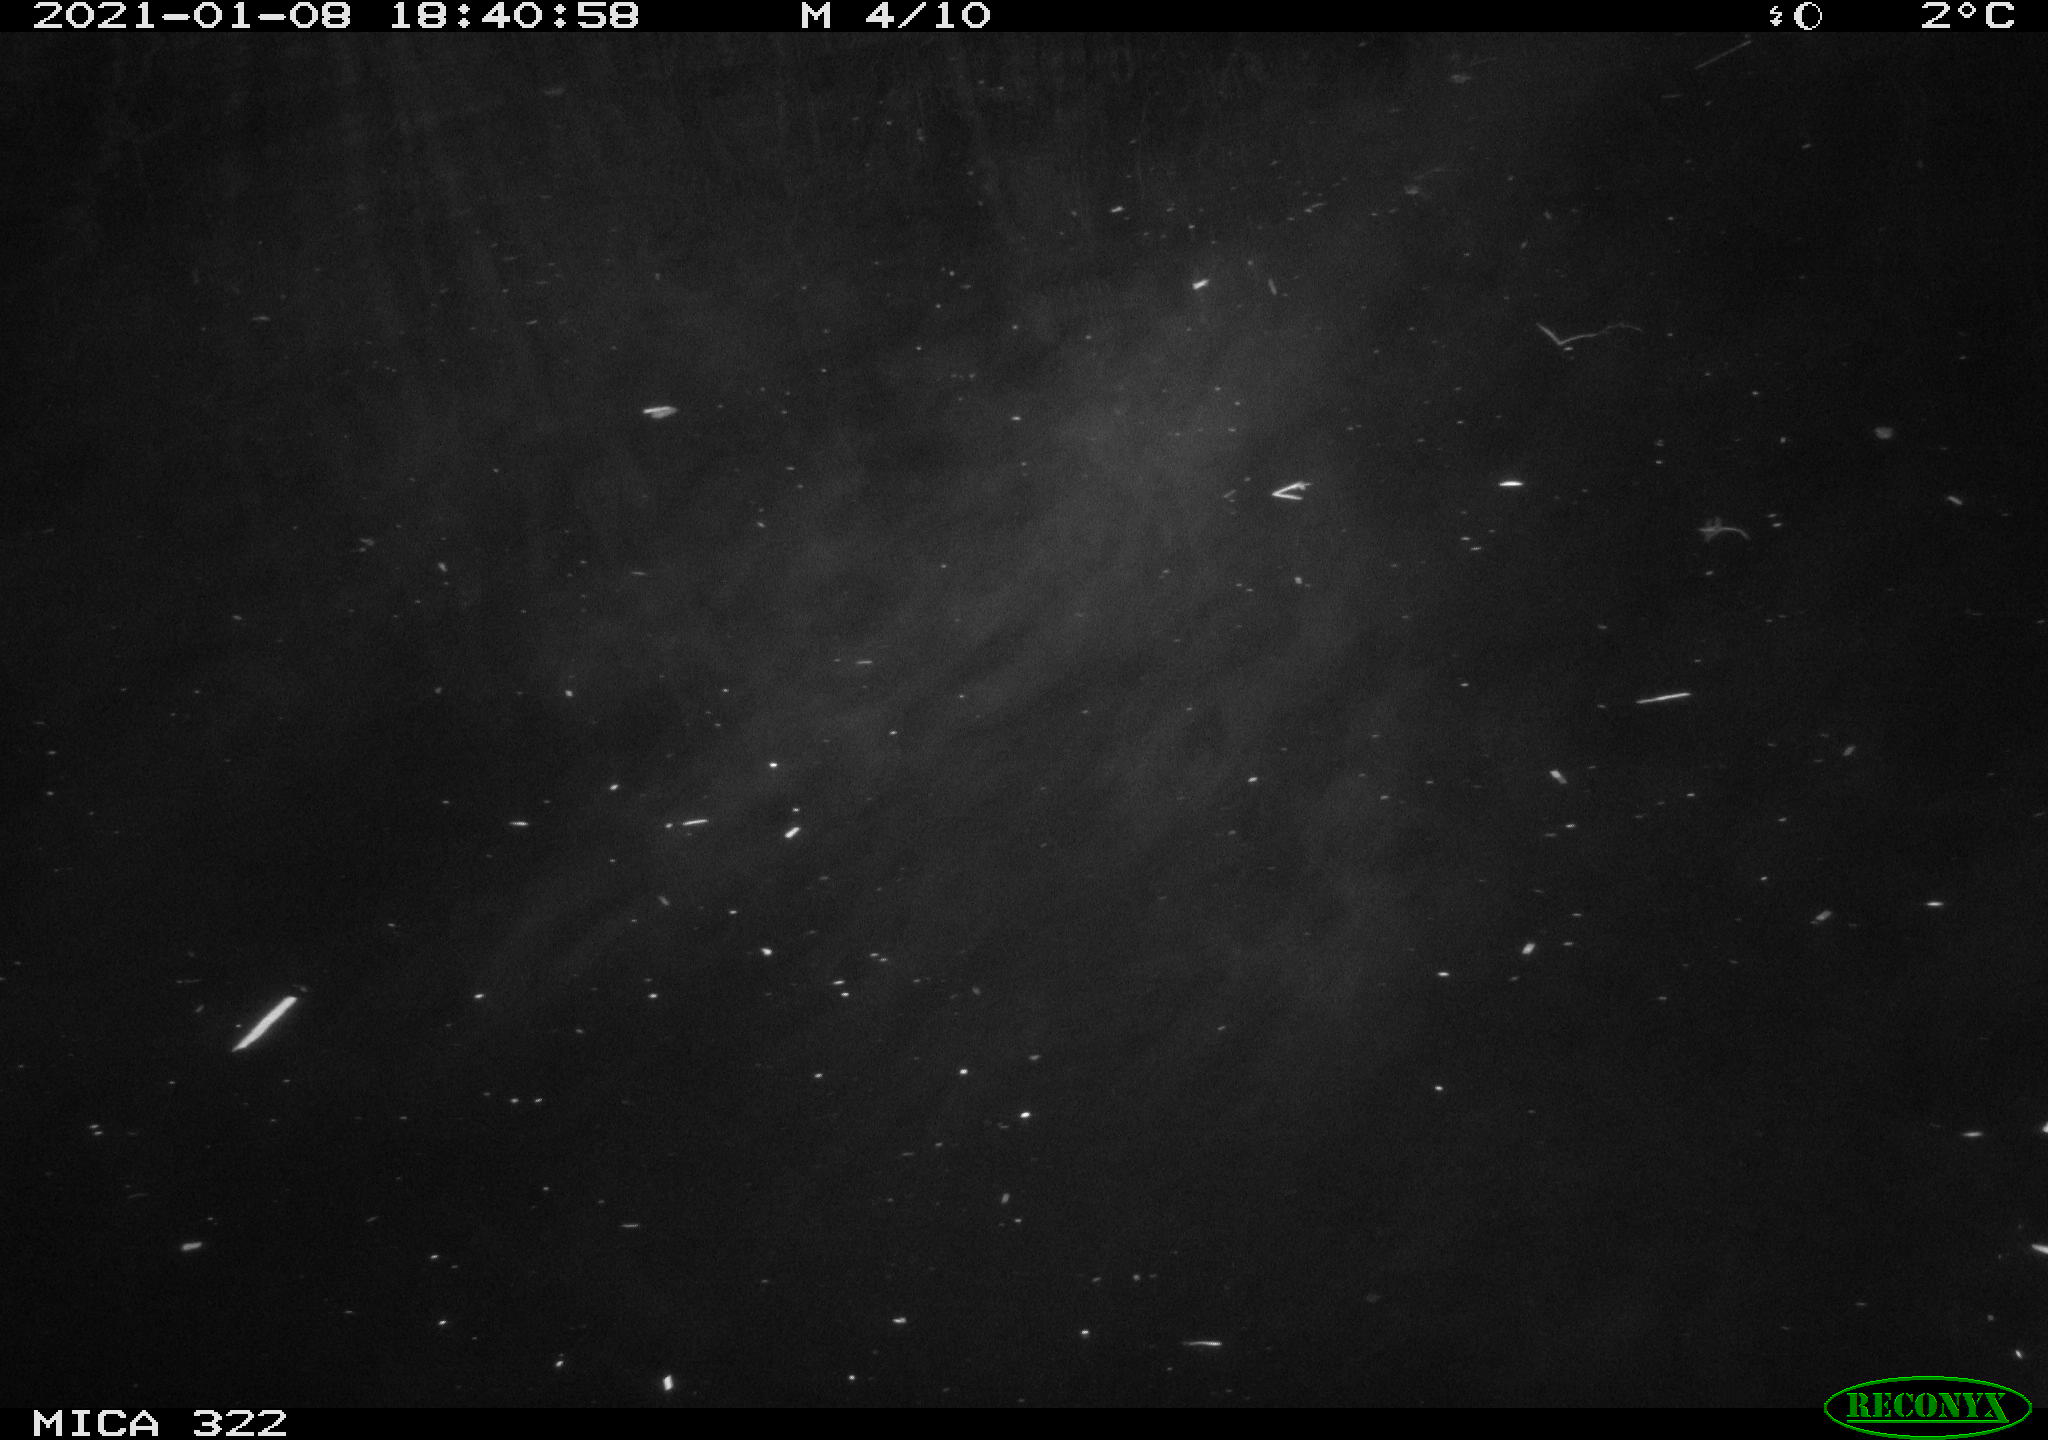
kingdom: Animalia
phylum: Chordata
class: Mammalia
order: Rodentia
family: Muridae
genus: Rattus
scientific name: Rattus norvegicus
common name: Brown rat
